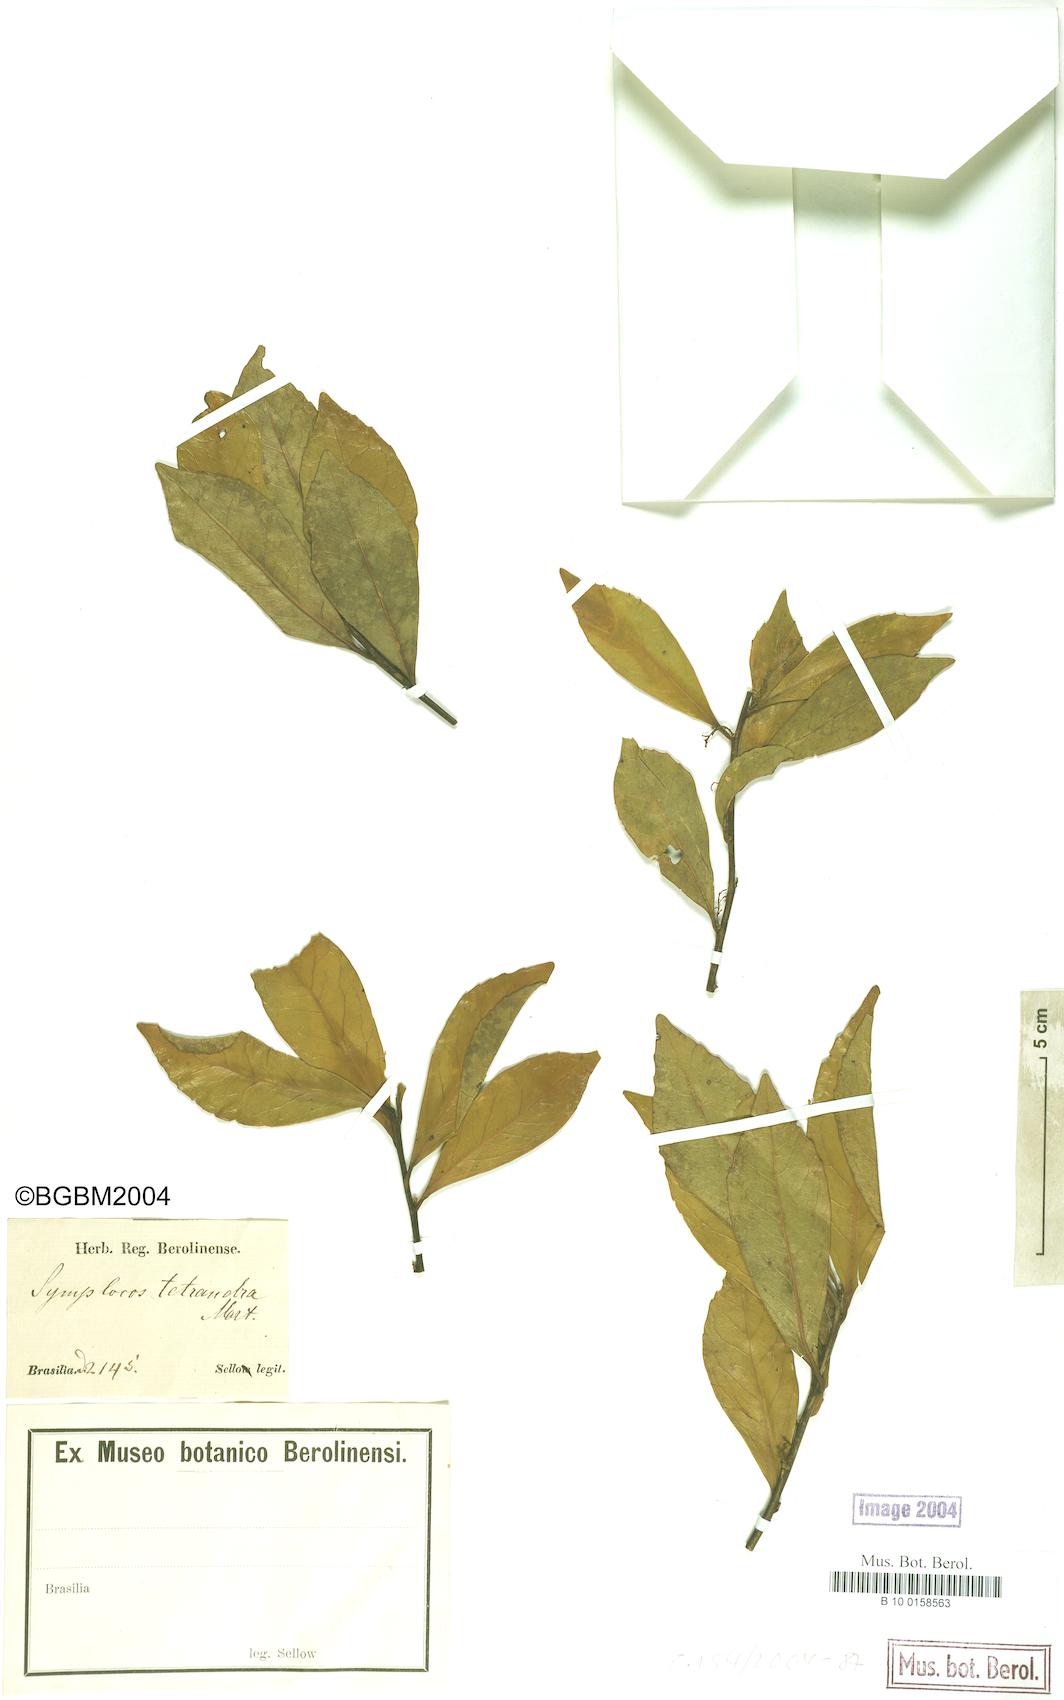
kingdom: Plantae
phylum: Tracheophyta
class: Magnoliopsida
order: Ericales
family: Symplocaceae
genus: Symplocos
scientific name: Symplocos tetrandra
